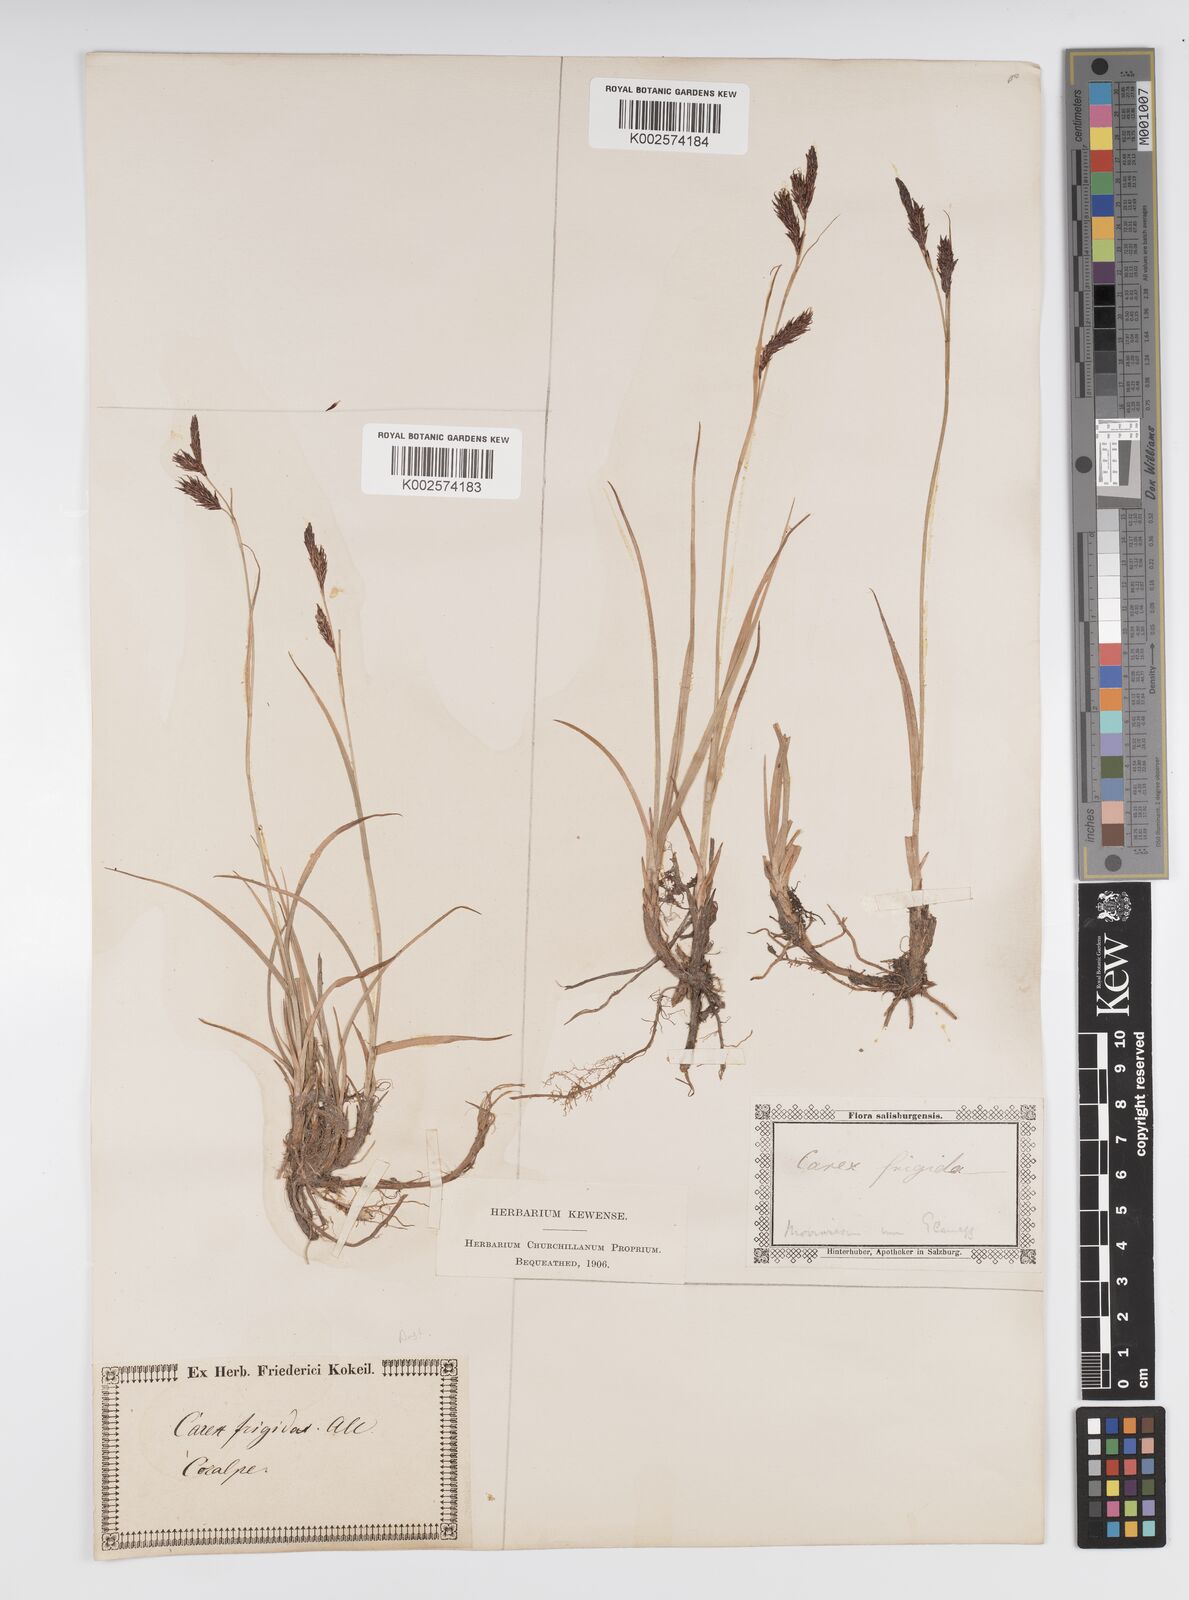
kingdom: Plantae
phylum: Tracheophyta
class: Liliopsida
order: Poales
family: Cyperaceae
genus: Carex
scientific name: Carex frigida
